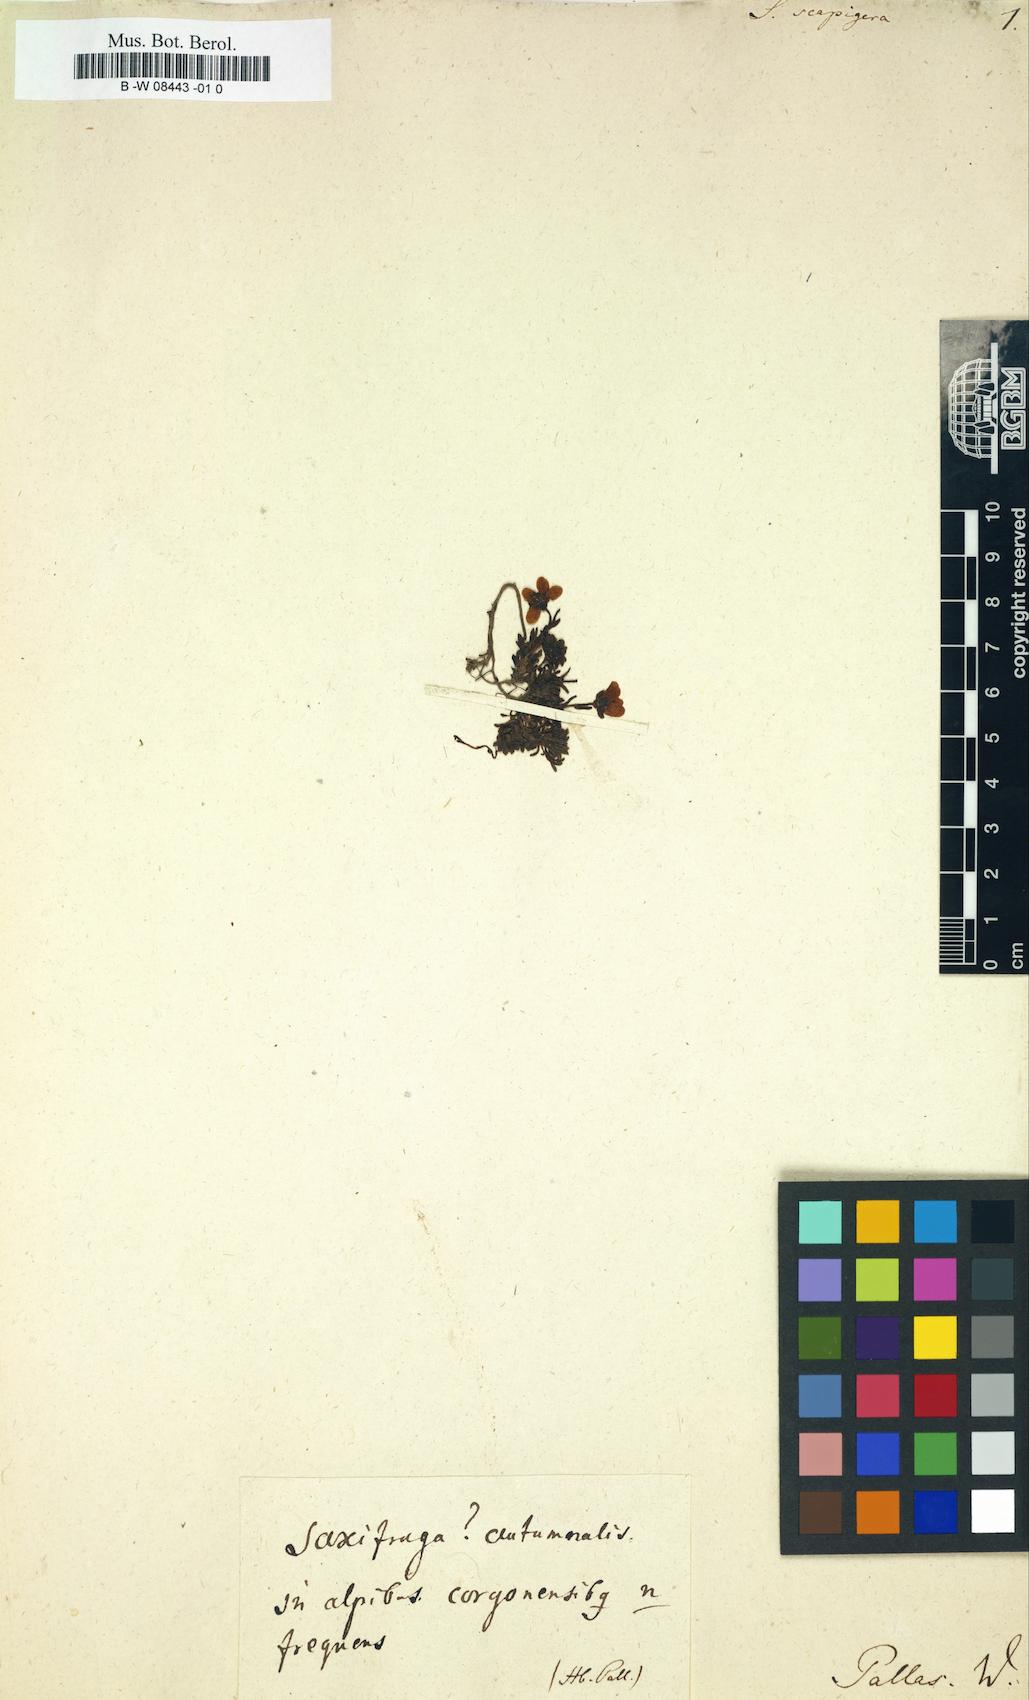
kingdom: Plantae
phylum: Tracheophyta
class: Magnoliopsida
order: Saxifragales
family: Saxifragaceae
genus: Saxifraga
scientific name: Saxifraga serpyllifolia
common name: Thyme-leaved saxifrage
